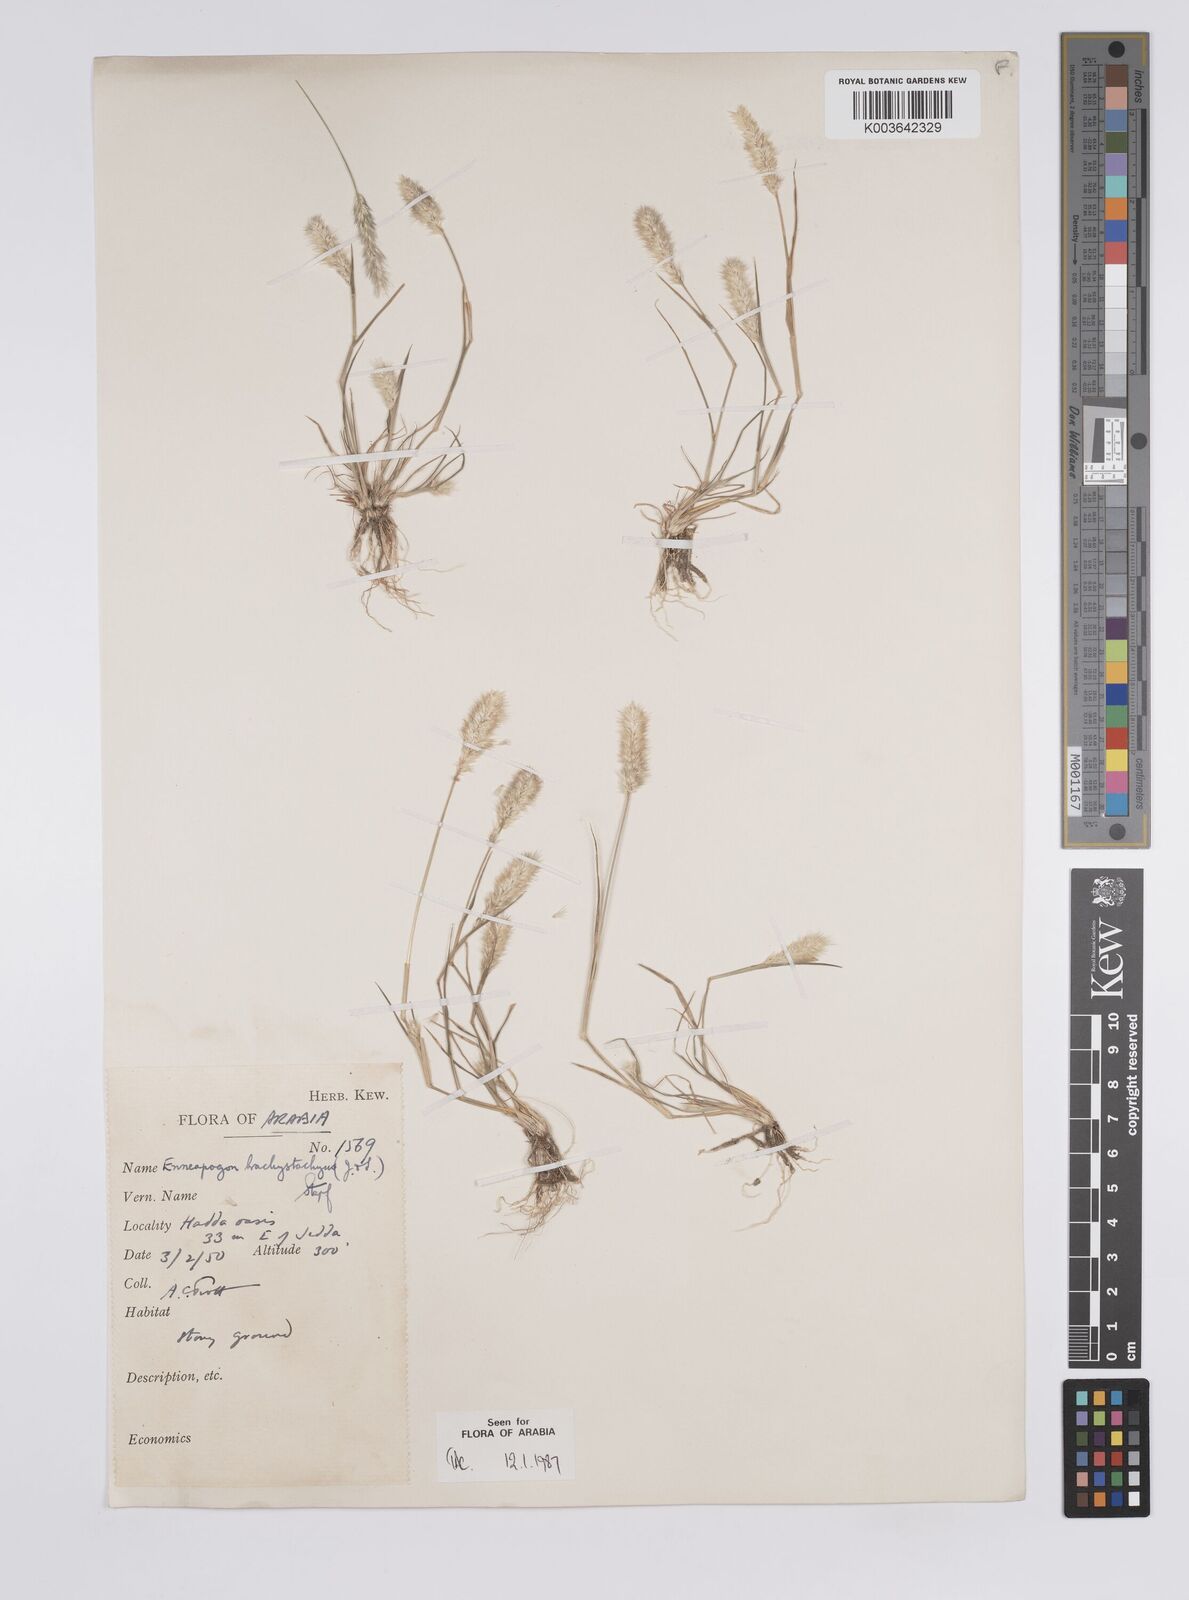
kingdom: Plantae
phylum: Tracheophyta
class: Liliopsida
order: Poales
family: Poaceae
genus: Enneapogon
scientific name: Enneapogon desvauxii
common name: Feather pappus grass
